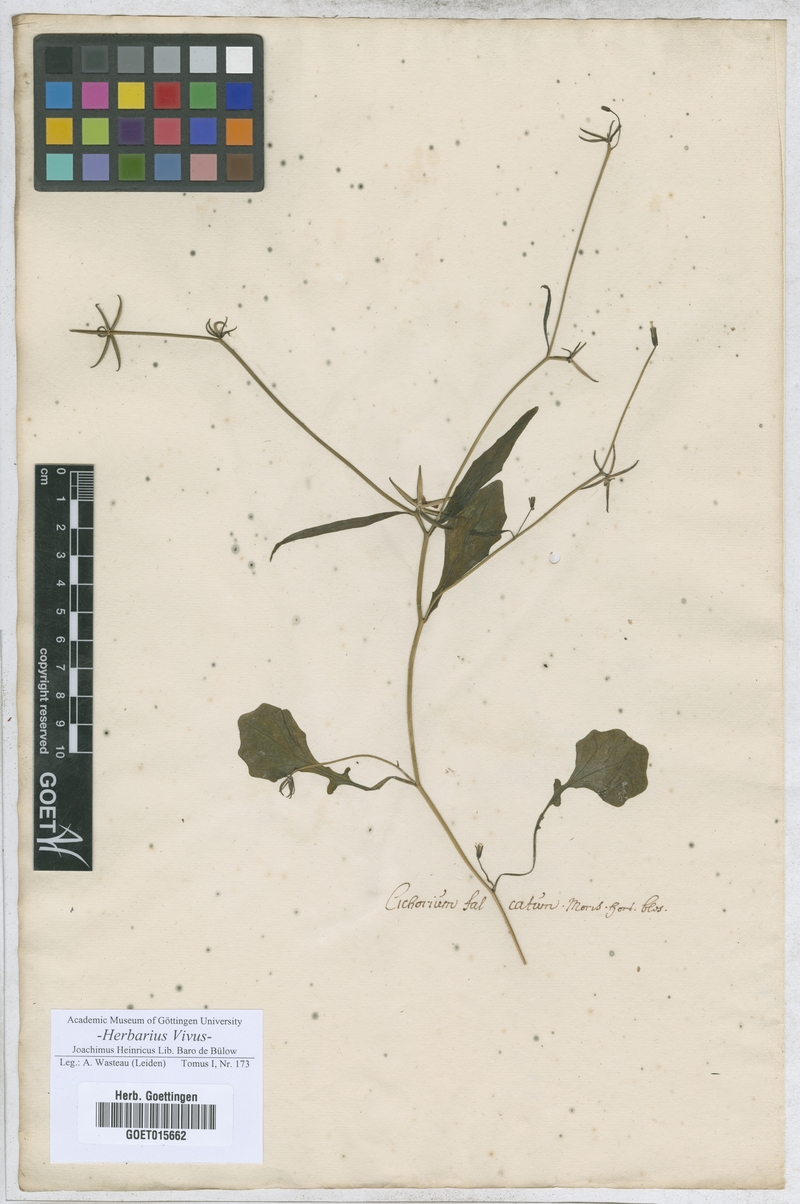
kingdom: Plantae
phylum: Tracheophyta
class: Magnoliopsida
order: Asterales
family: Asteraceae
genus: Cichorium
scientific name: Cichorium
